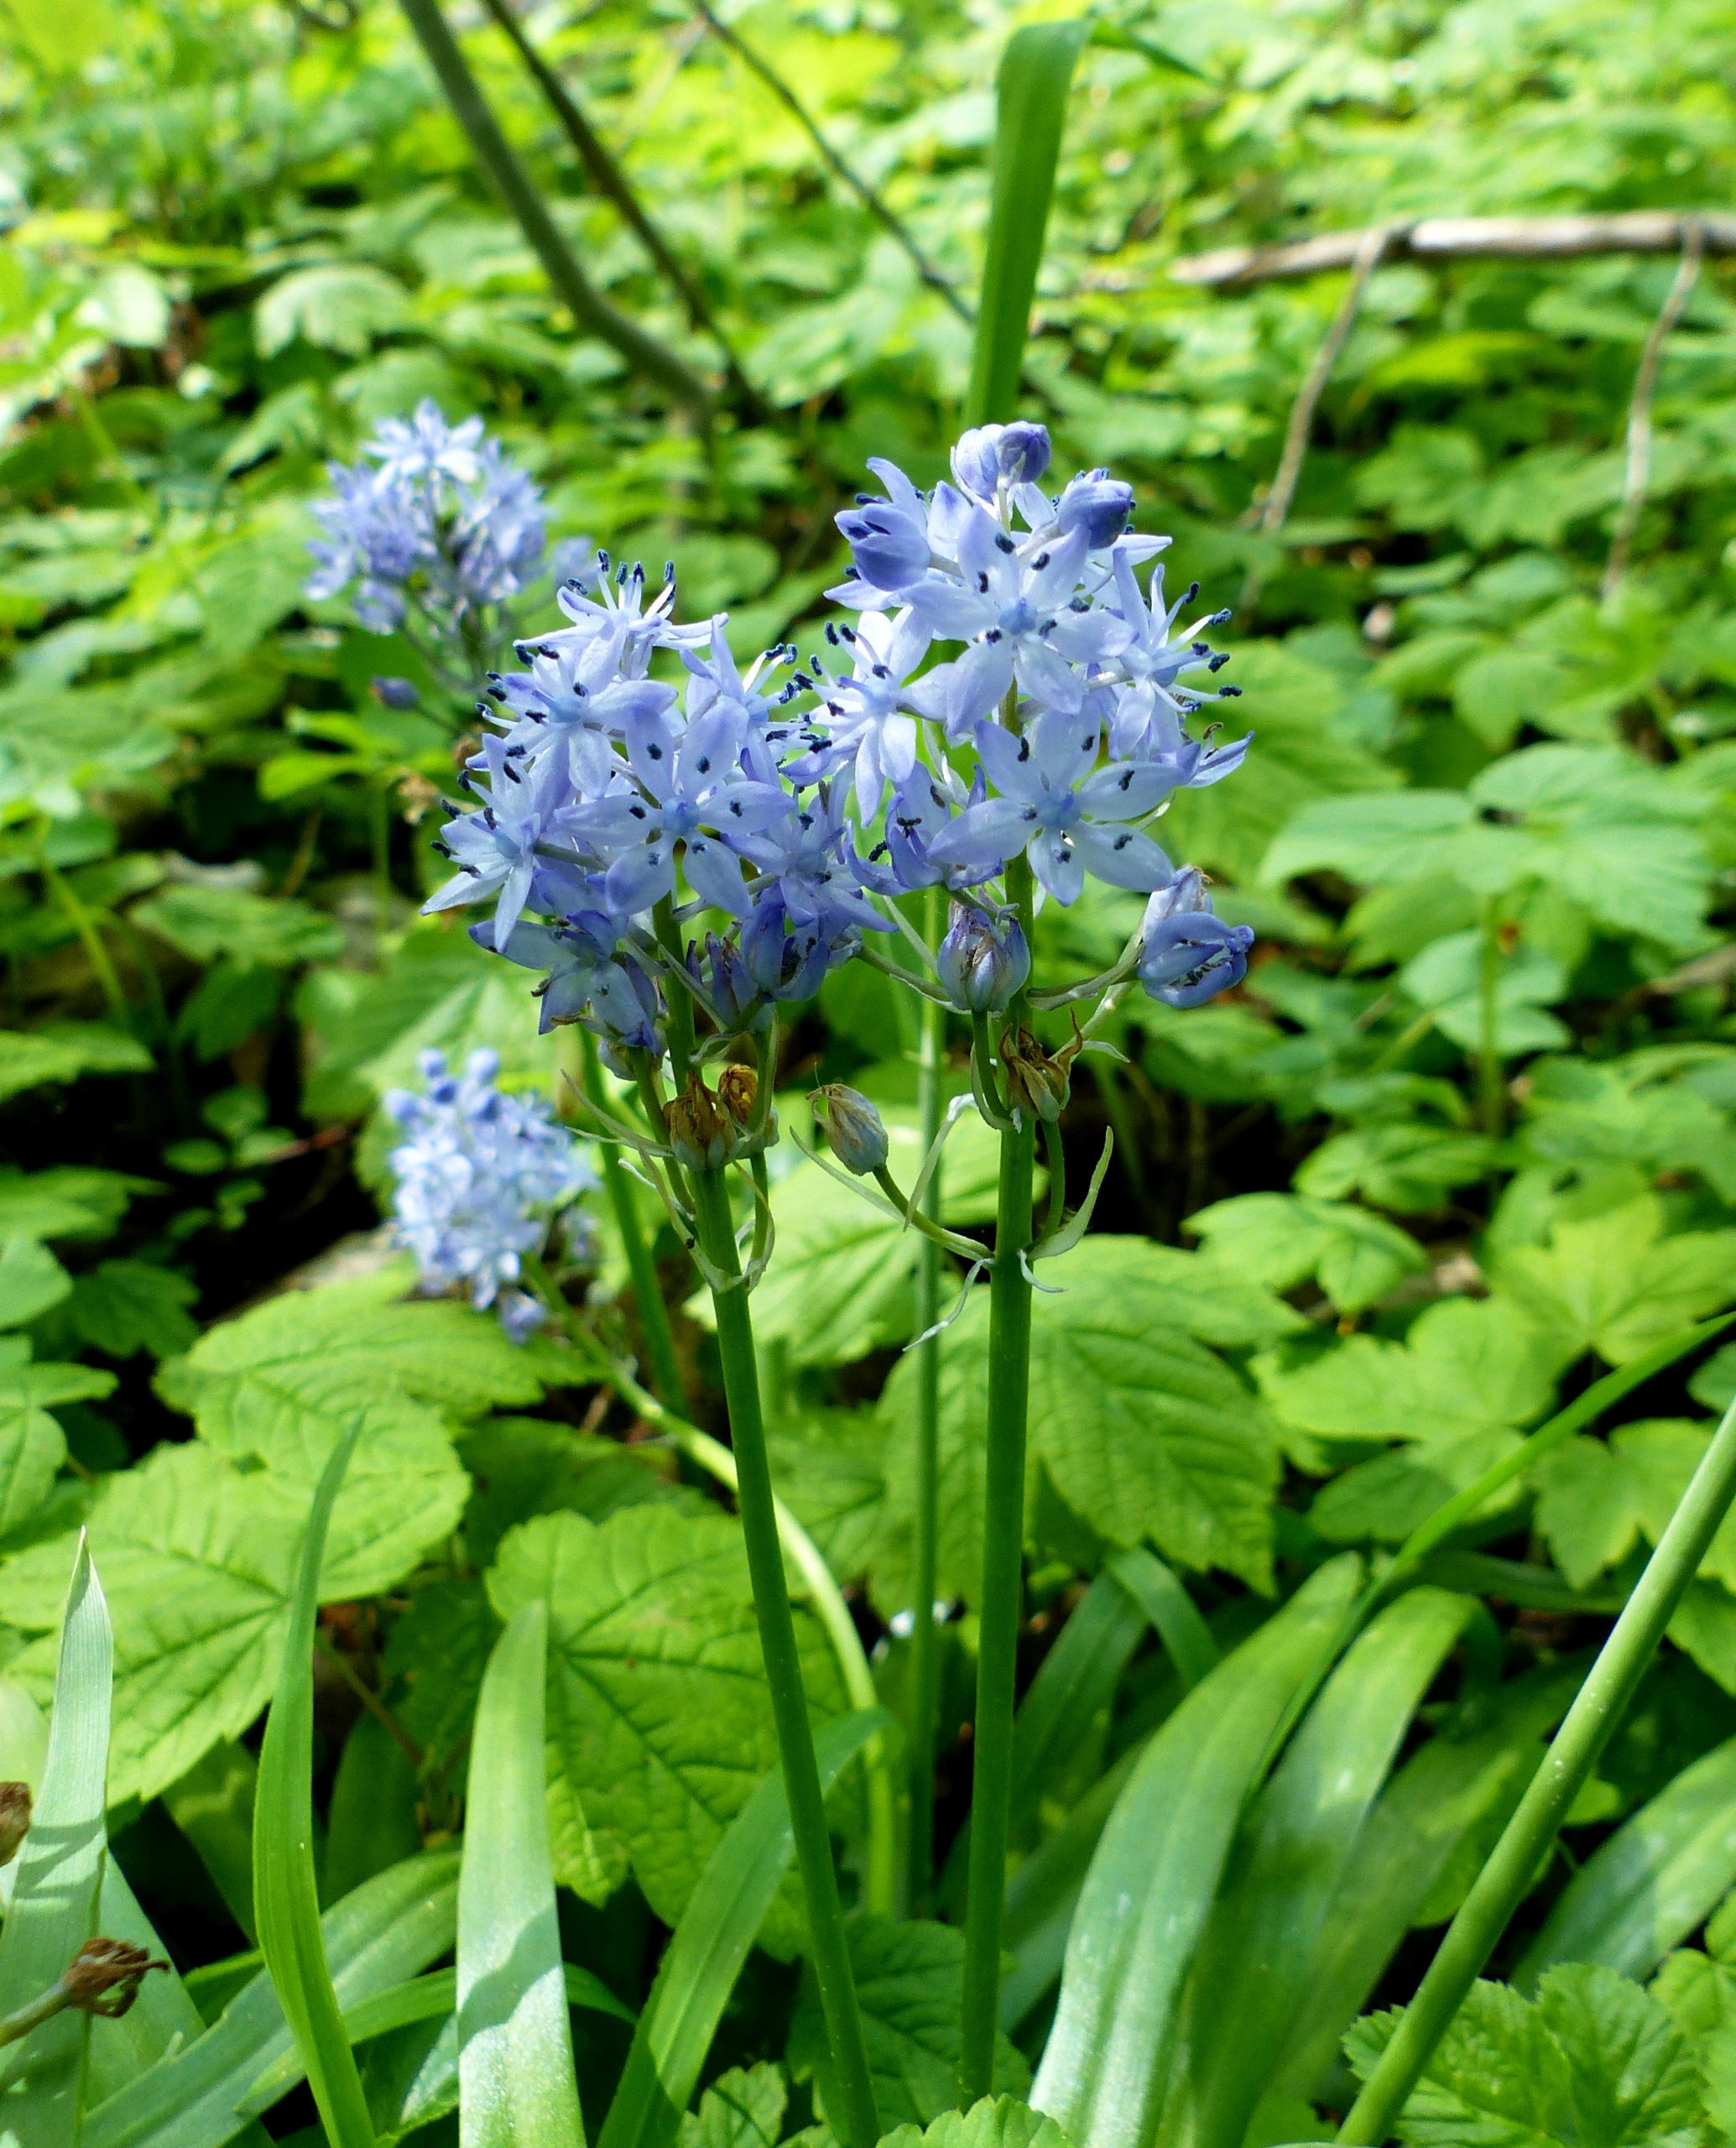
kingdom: Plantae
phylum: Tracheophyta
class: Liliopsida
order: Asparagales
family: Asparagaceae
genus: Hyacinthoides
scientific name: Hyacinthoides italica
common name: Italiensk skilla
